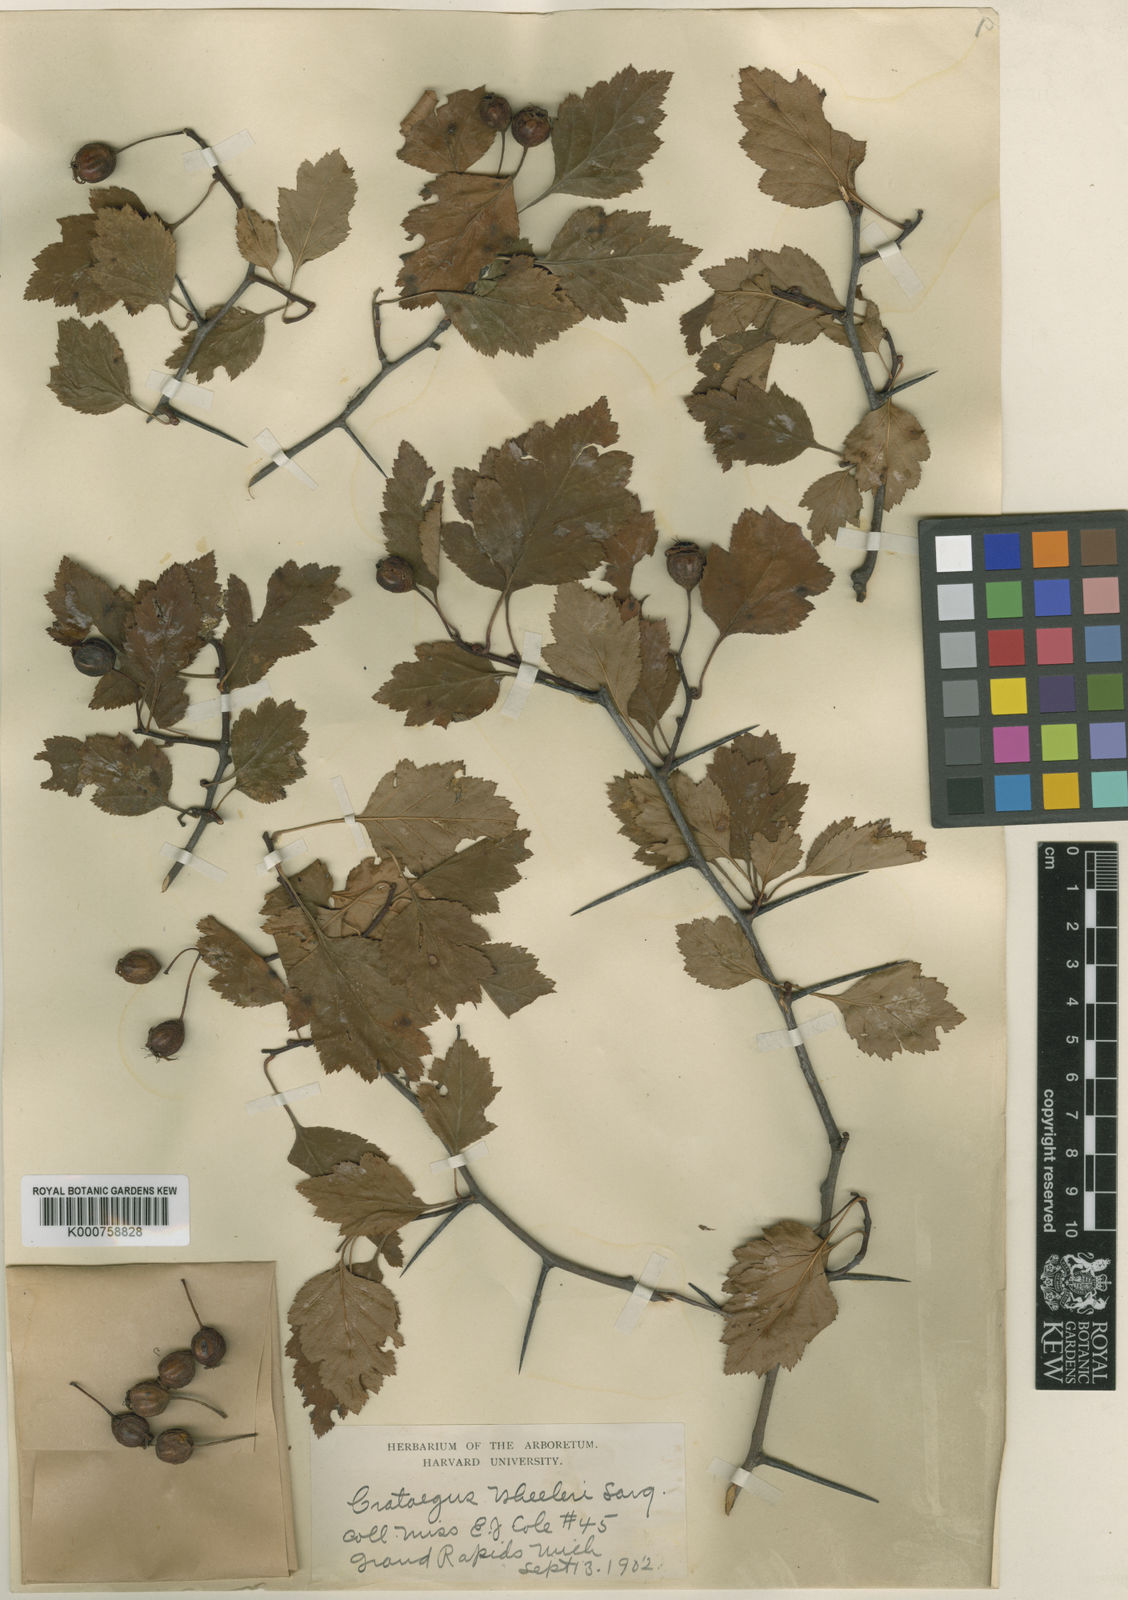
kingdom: Plantae
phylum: Tracheophyta
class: Magnoliopsida
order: Rosales
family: Rosaceae
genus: Crataegus
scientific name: Crataegus wheeleri
